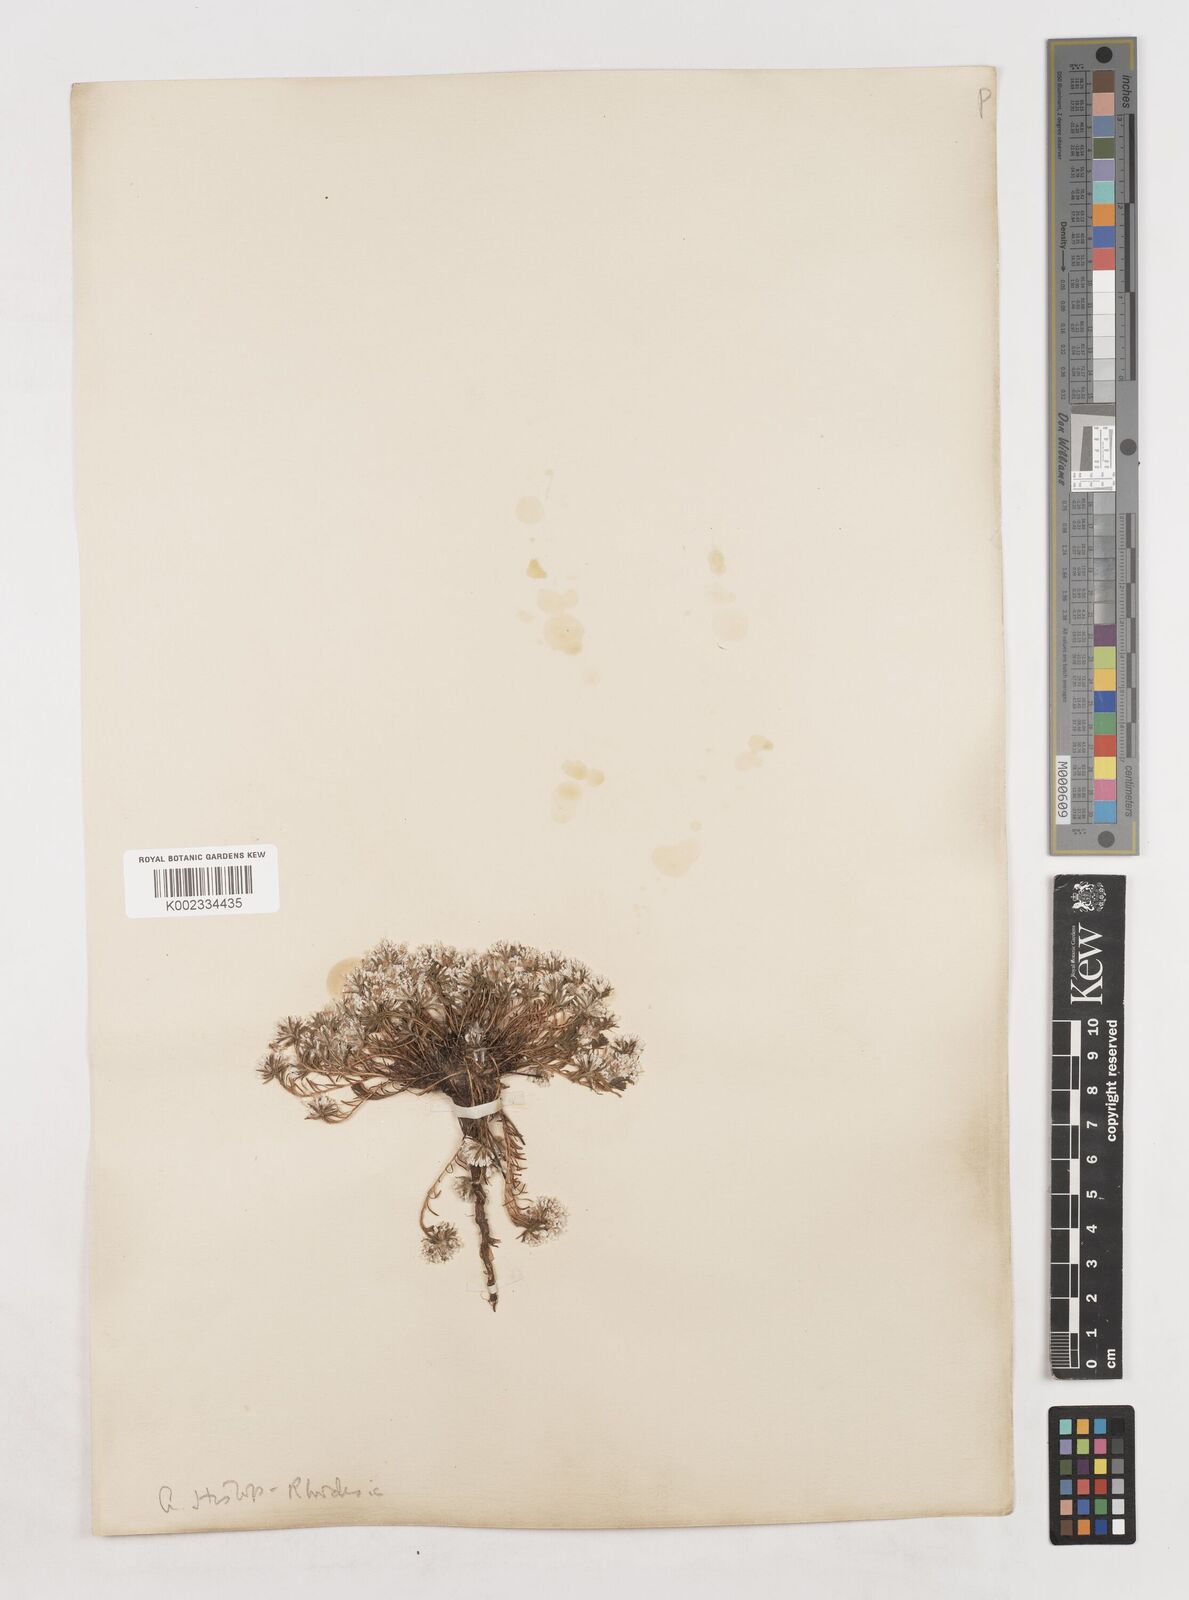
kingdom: Plantae
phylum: Tracheophyta
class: Magnoliopsida
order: Asterales
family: Asteraceae
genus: Helichrysum
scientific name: Helichrysum caespititium
